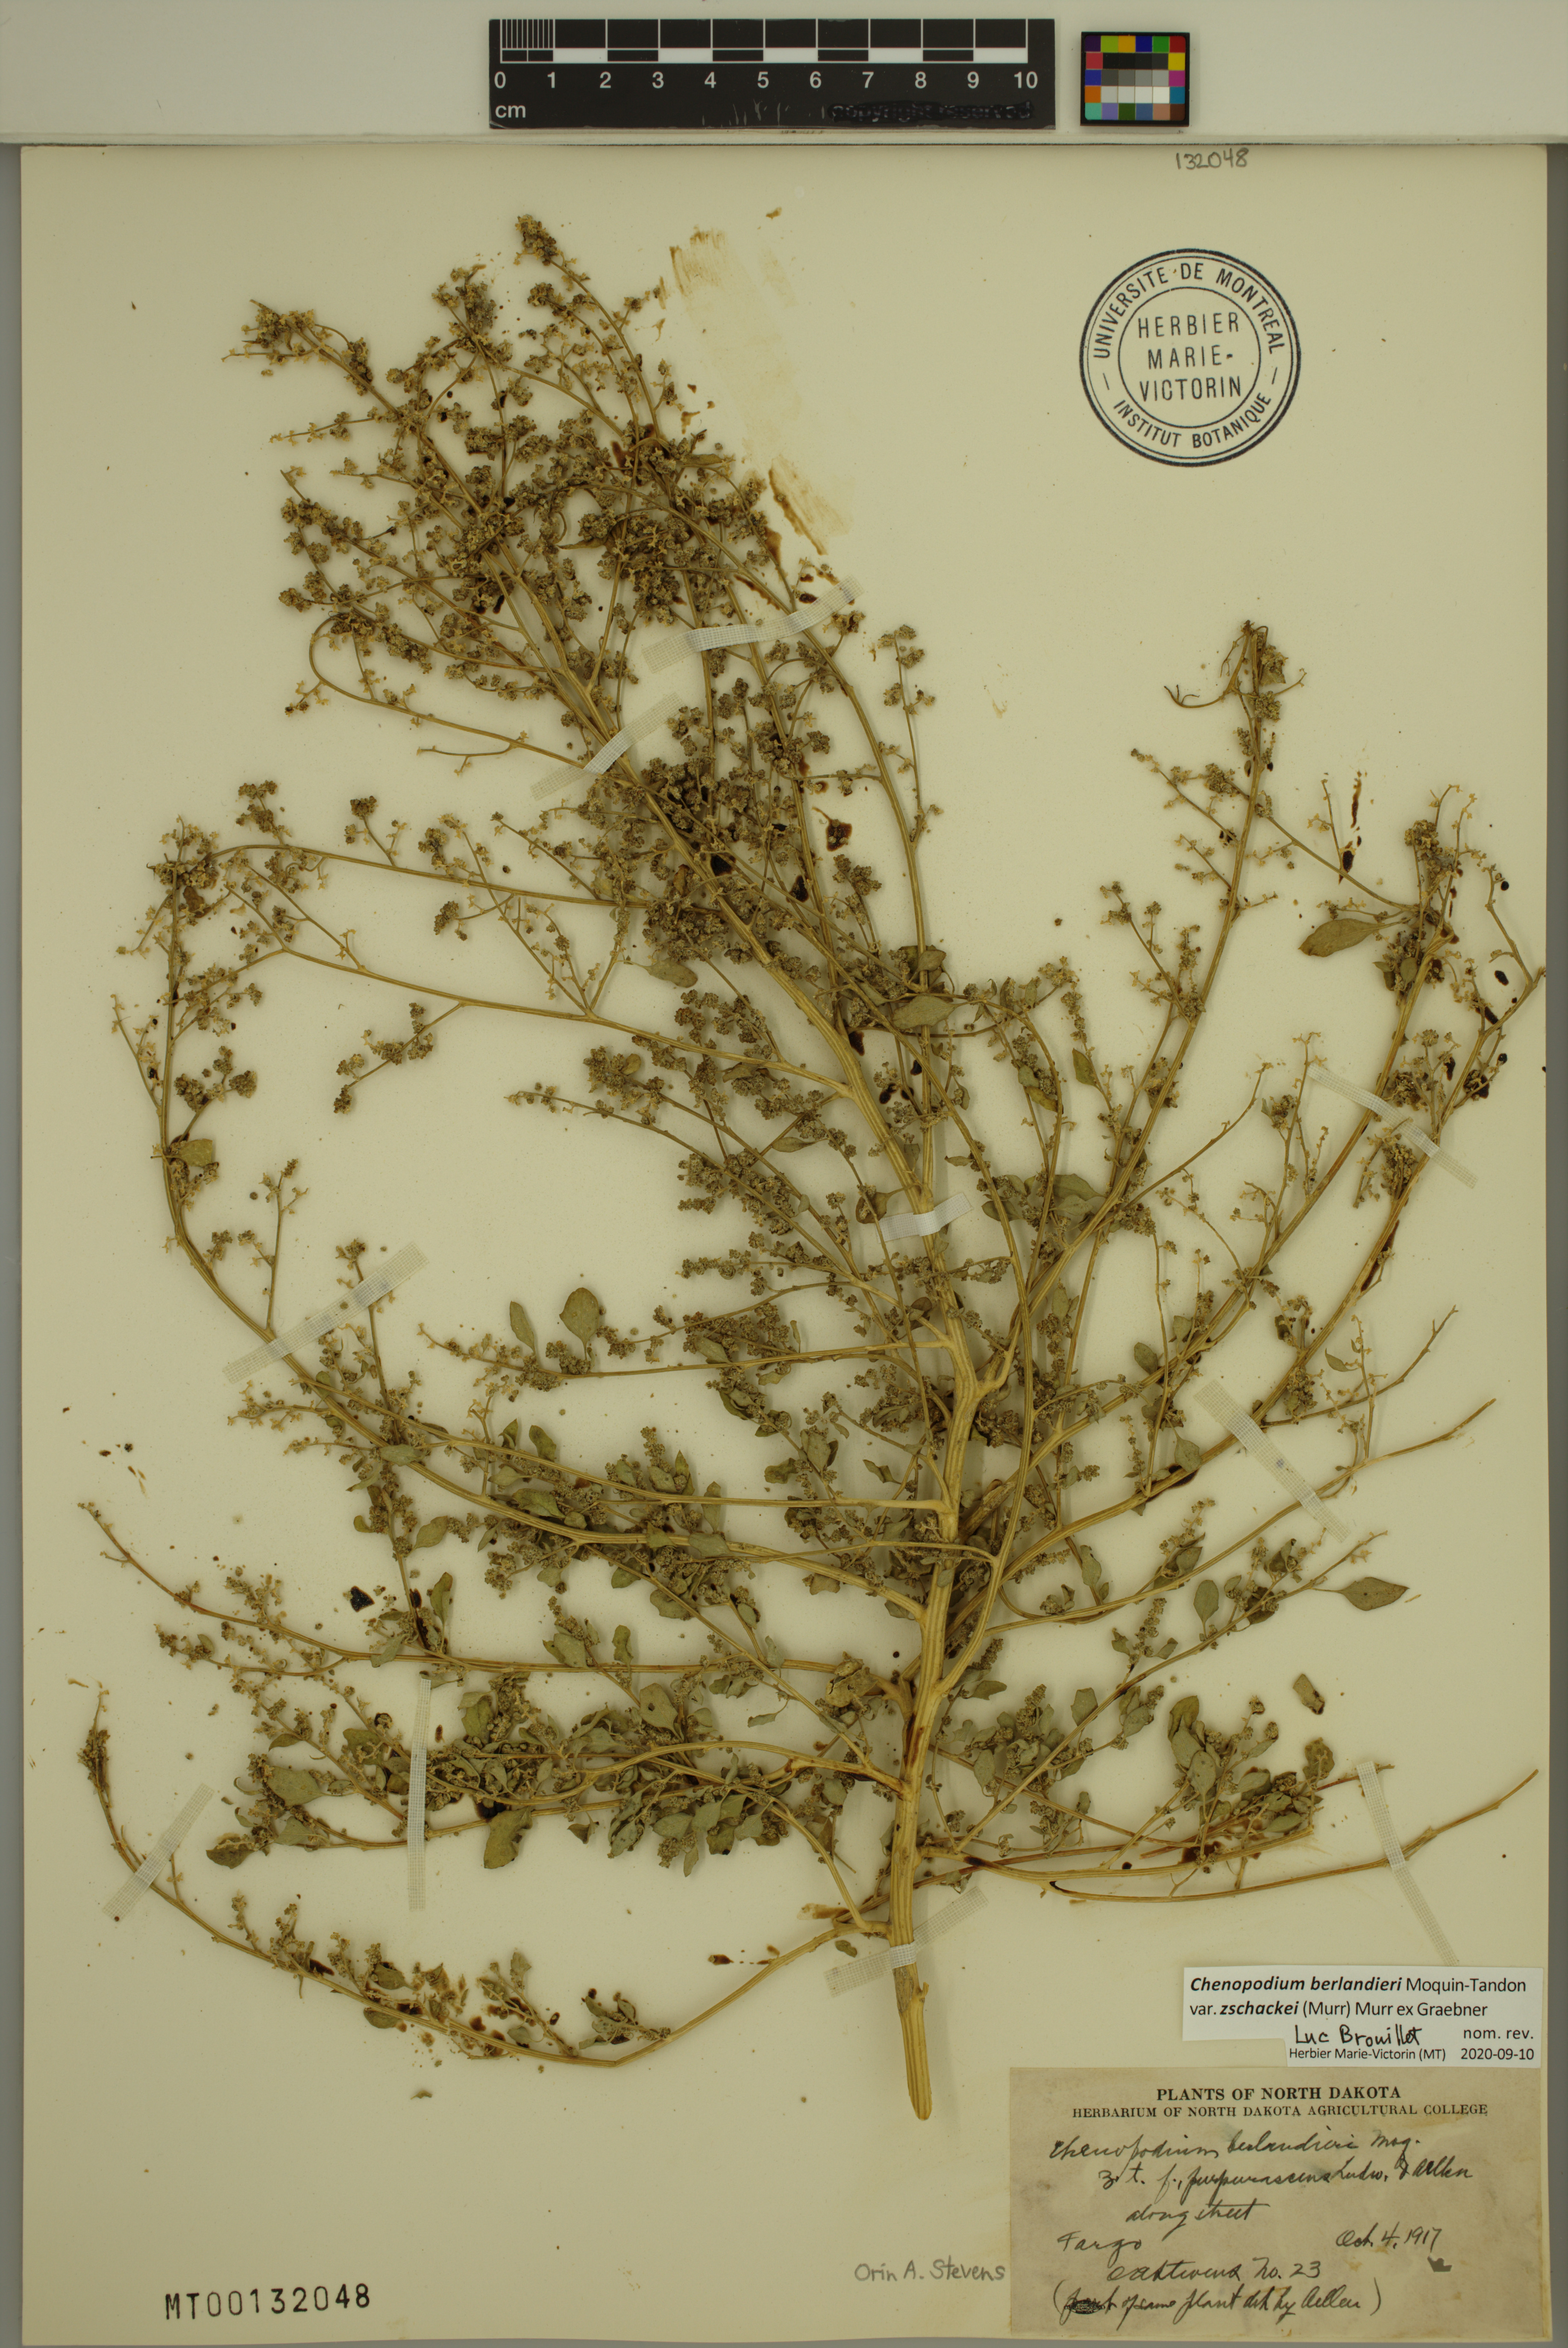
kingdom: Plantae
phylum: Tracheophyta
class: Magnoliopsida
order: Caryophyllales
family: Amaranthaceae
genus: Chenopodium
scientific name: Chenopodium berlandieri
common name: Pit-seed goosefoot
